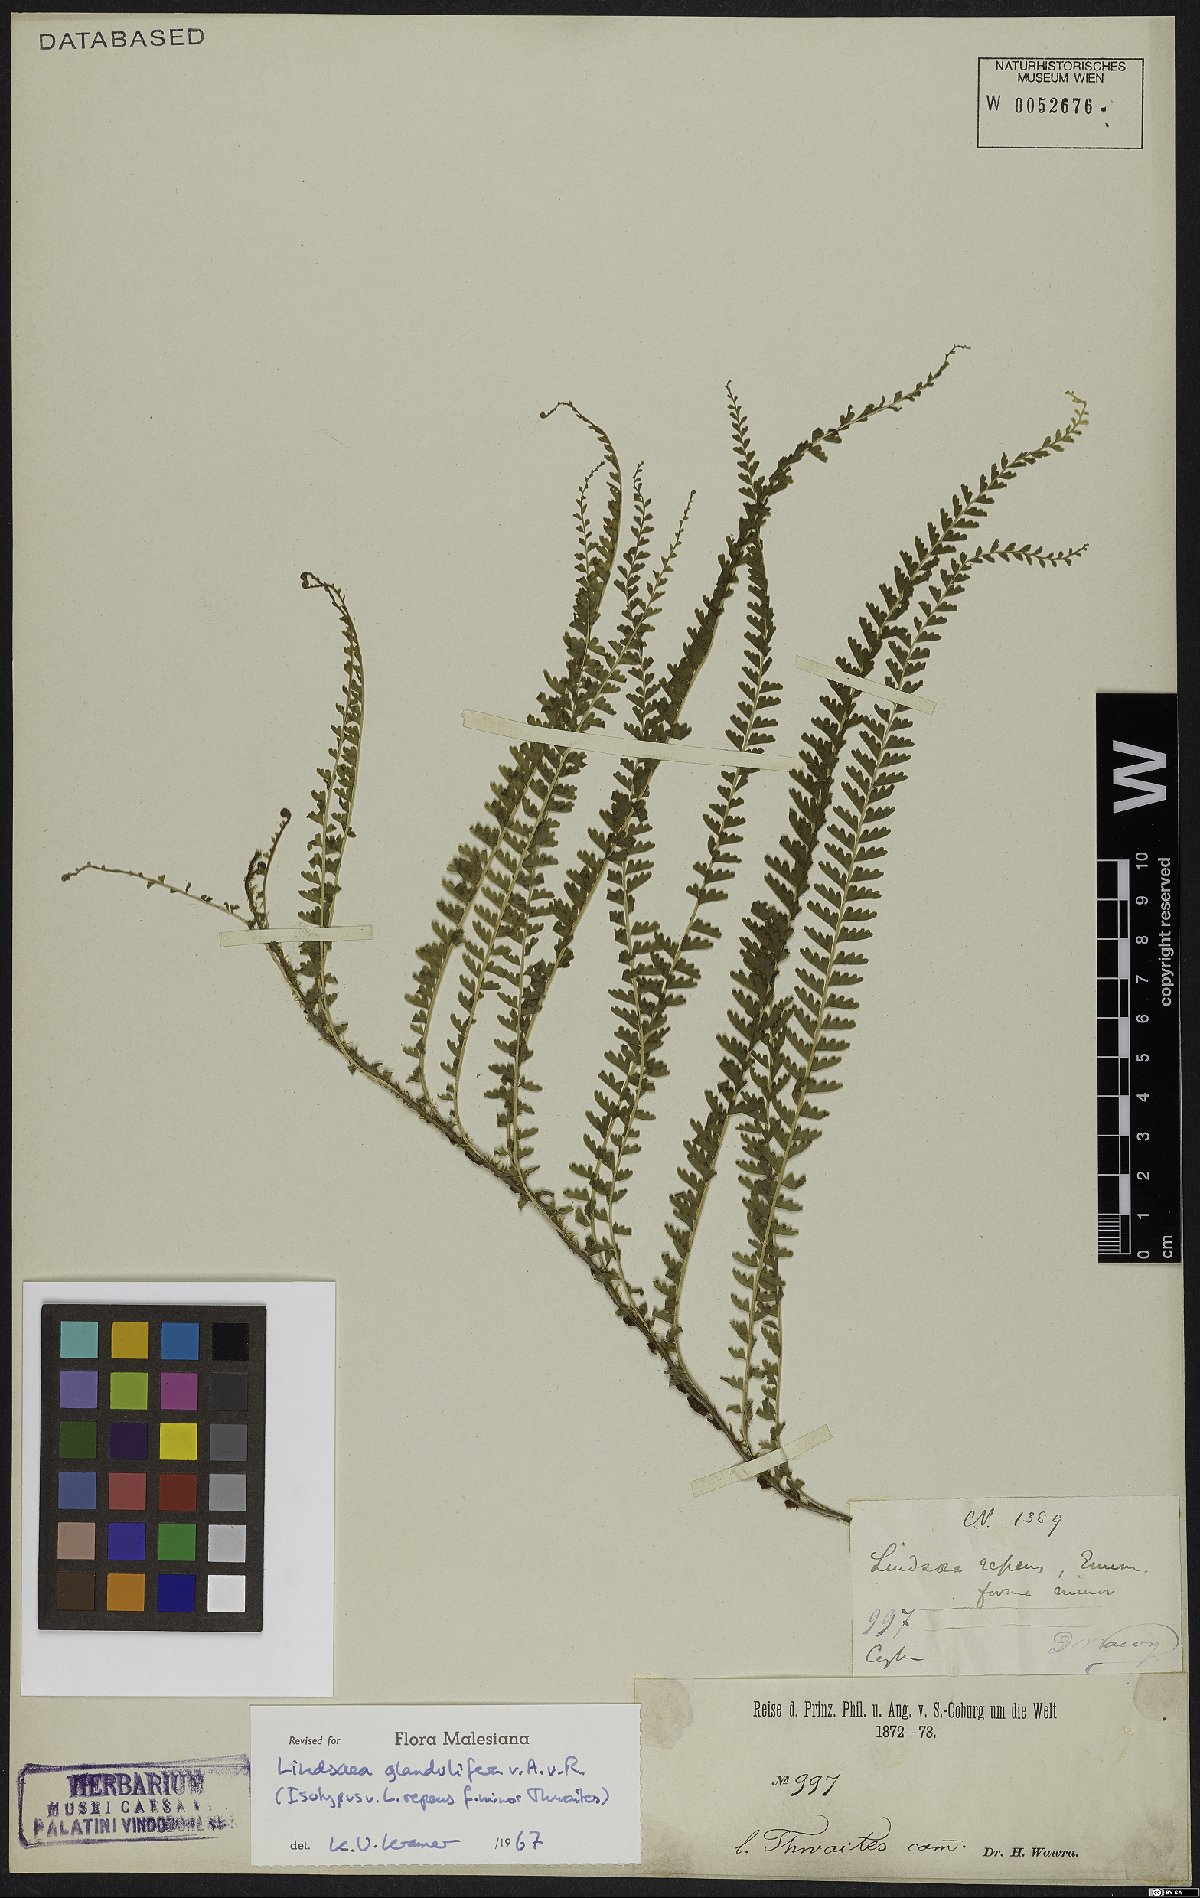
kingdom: Plantae
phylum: Tracheophyta
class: Polypodiopsida
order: Polypodiales
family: Lindsaeaceae
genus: Lindsaea
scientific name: Lindsaea glandulifera
